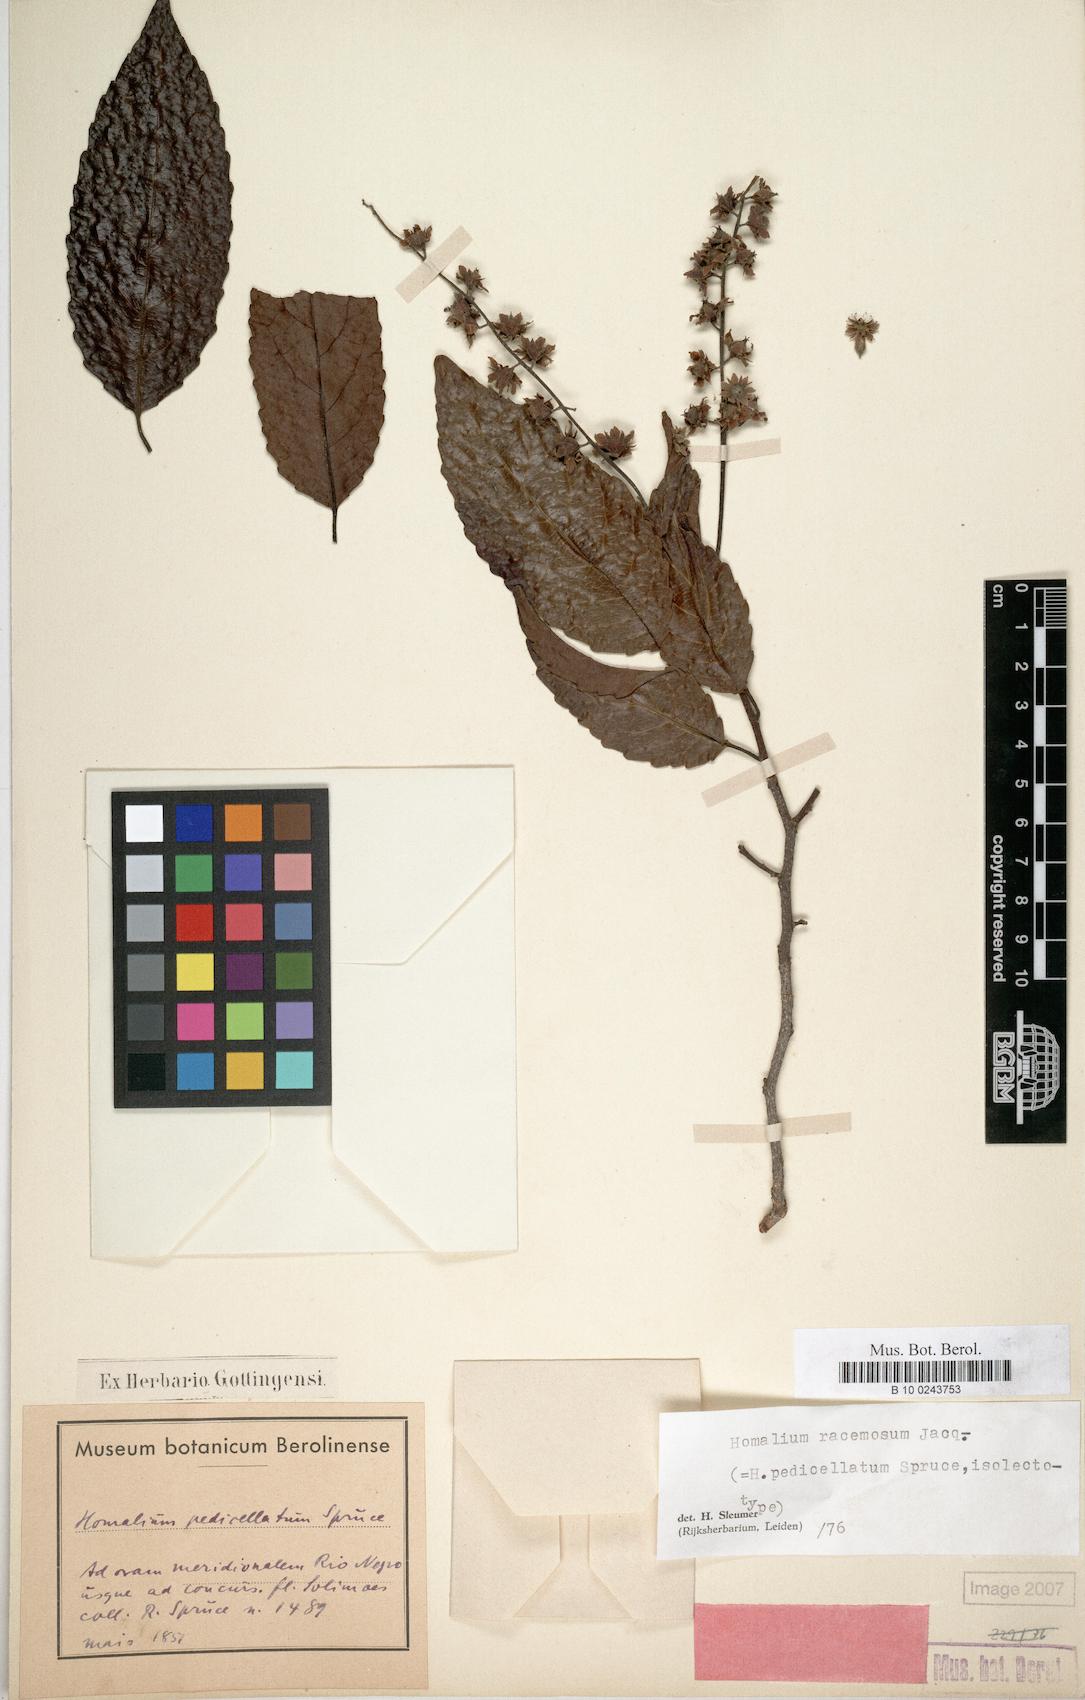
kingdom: Plantae
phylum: Tracheophyta
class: Magnoliopsida
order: Malpighiales
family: Salicaceae
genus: Homalium
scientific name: Homalium racemosum
